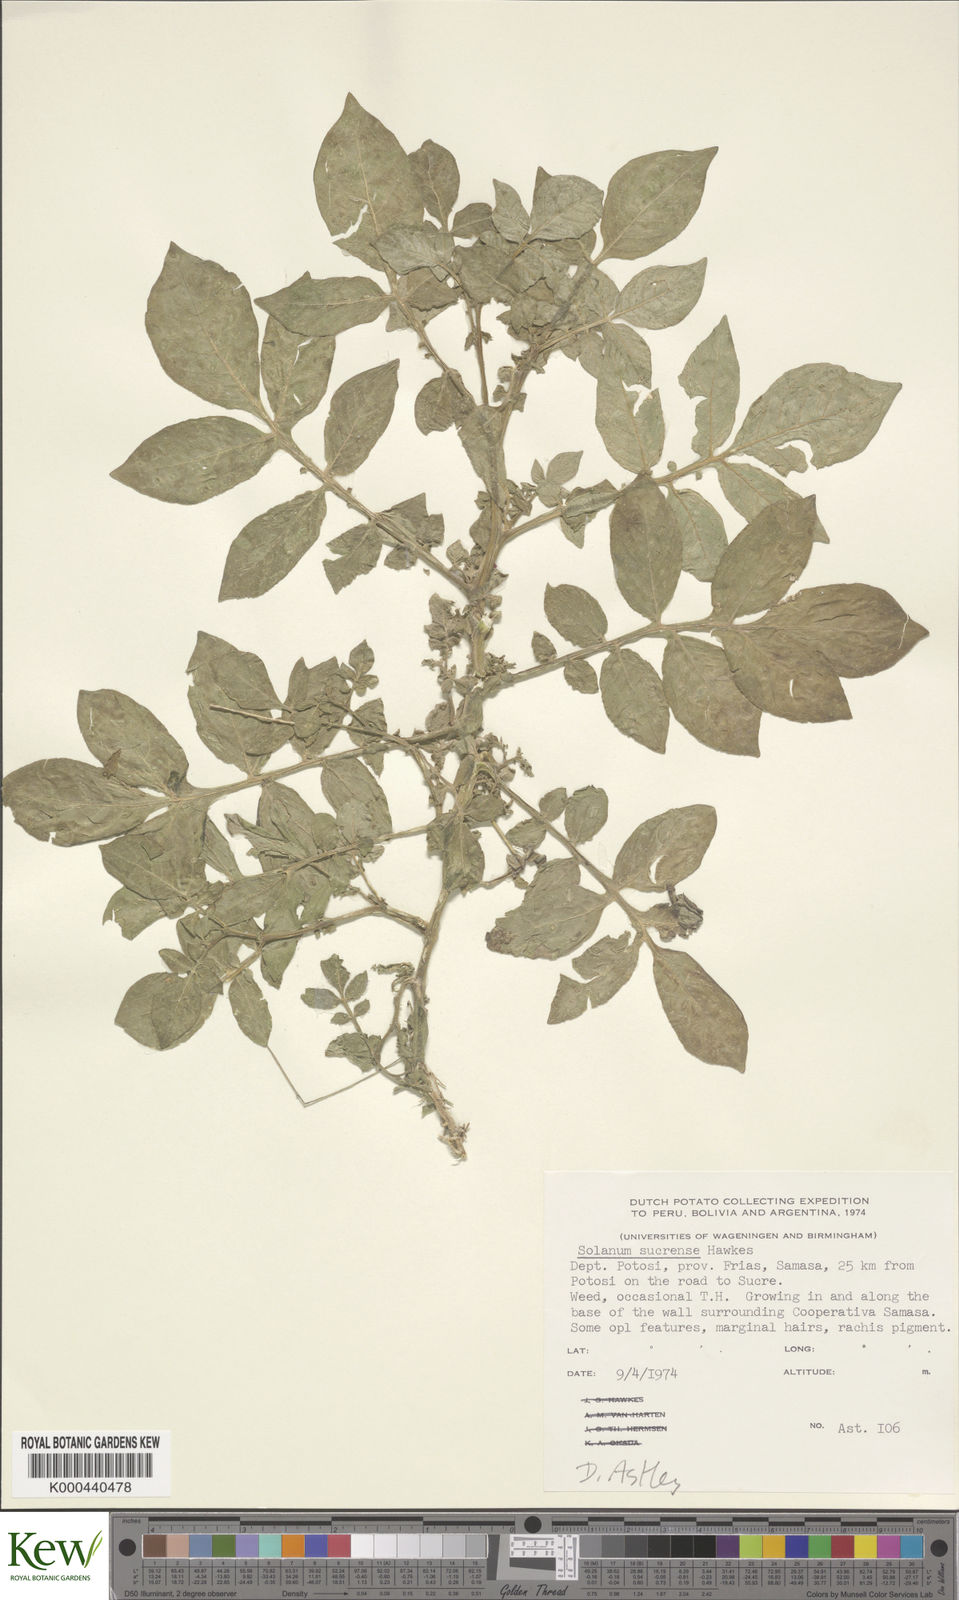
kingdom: Plantae
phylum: Tracheophyta
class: Magnoliopsida
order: Solanales
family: Solanaceae
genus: Solanum
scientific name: Solanum brevicaule
